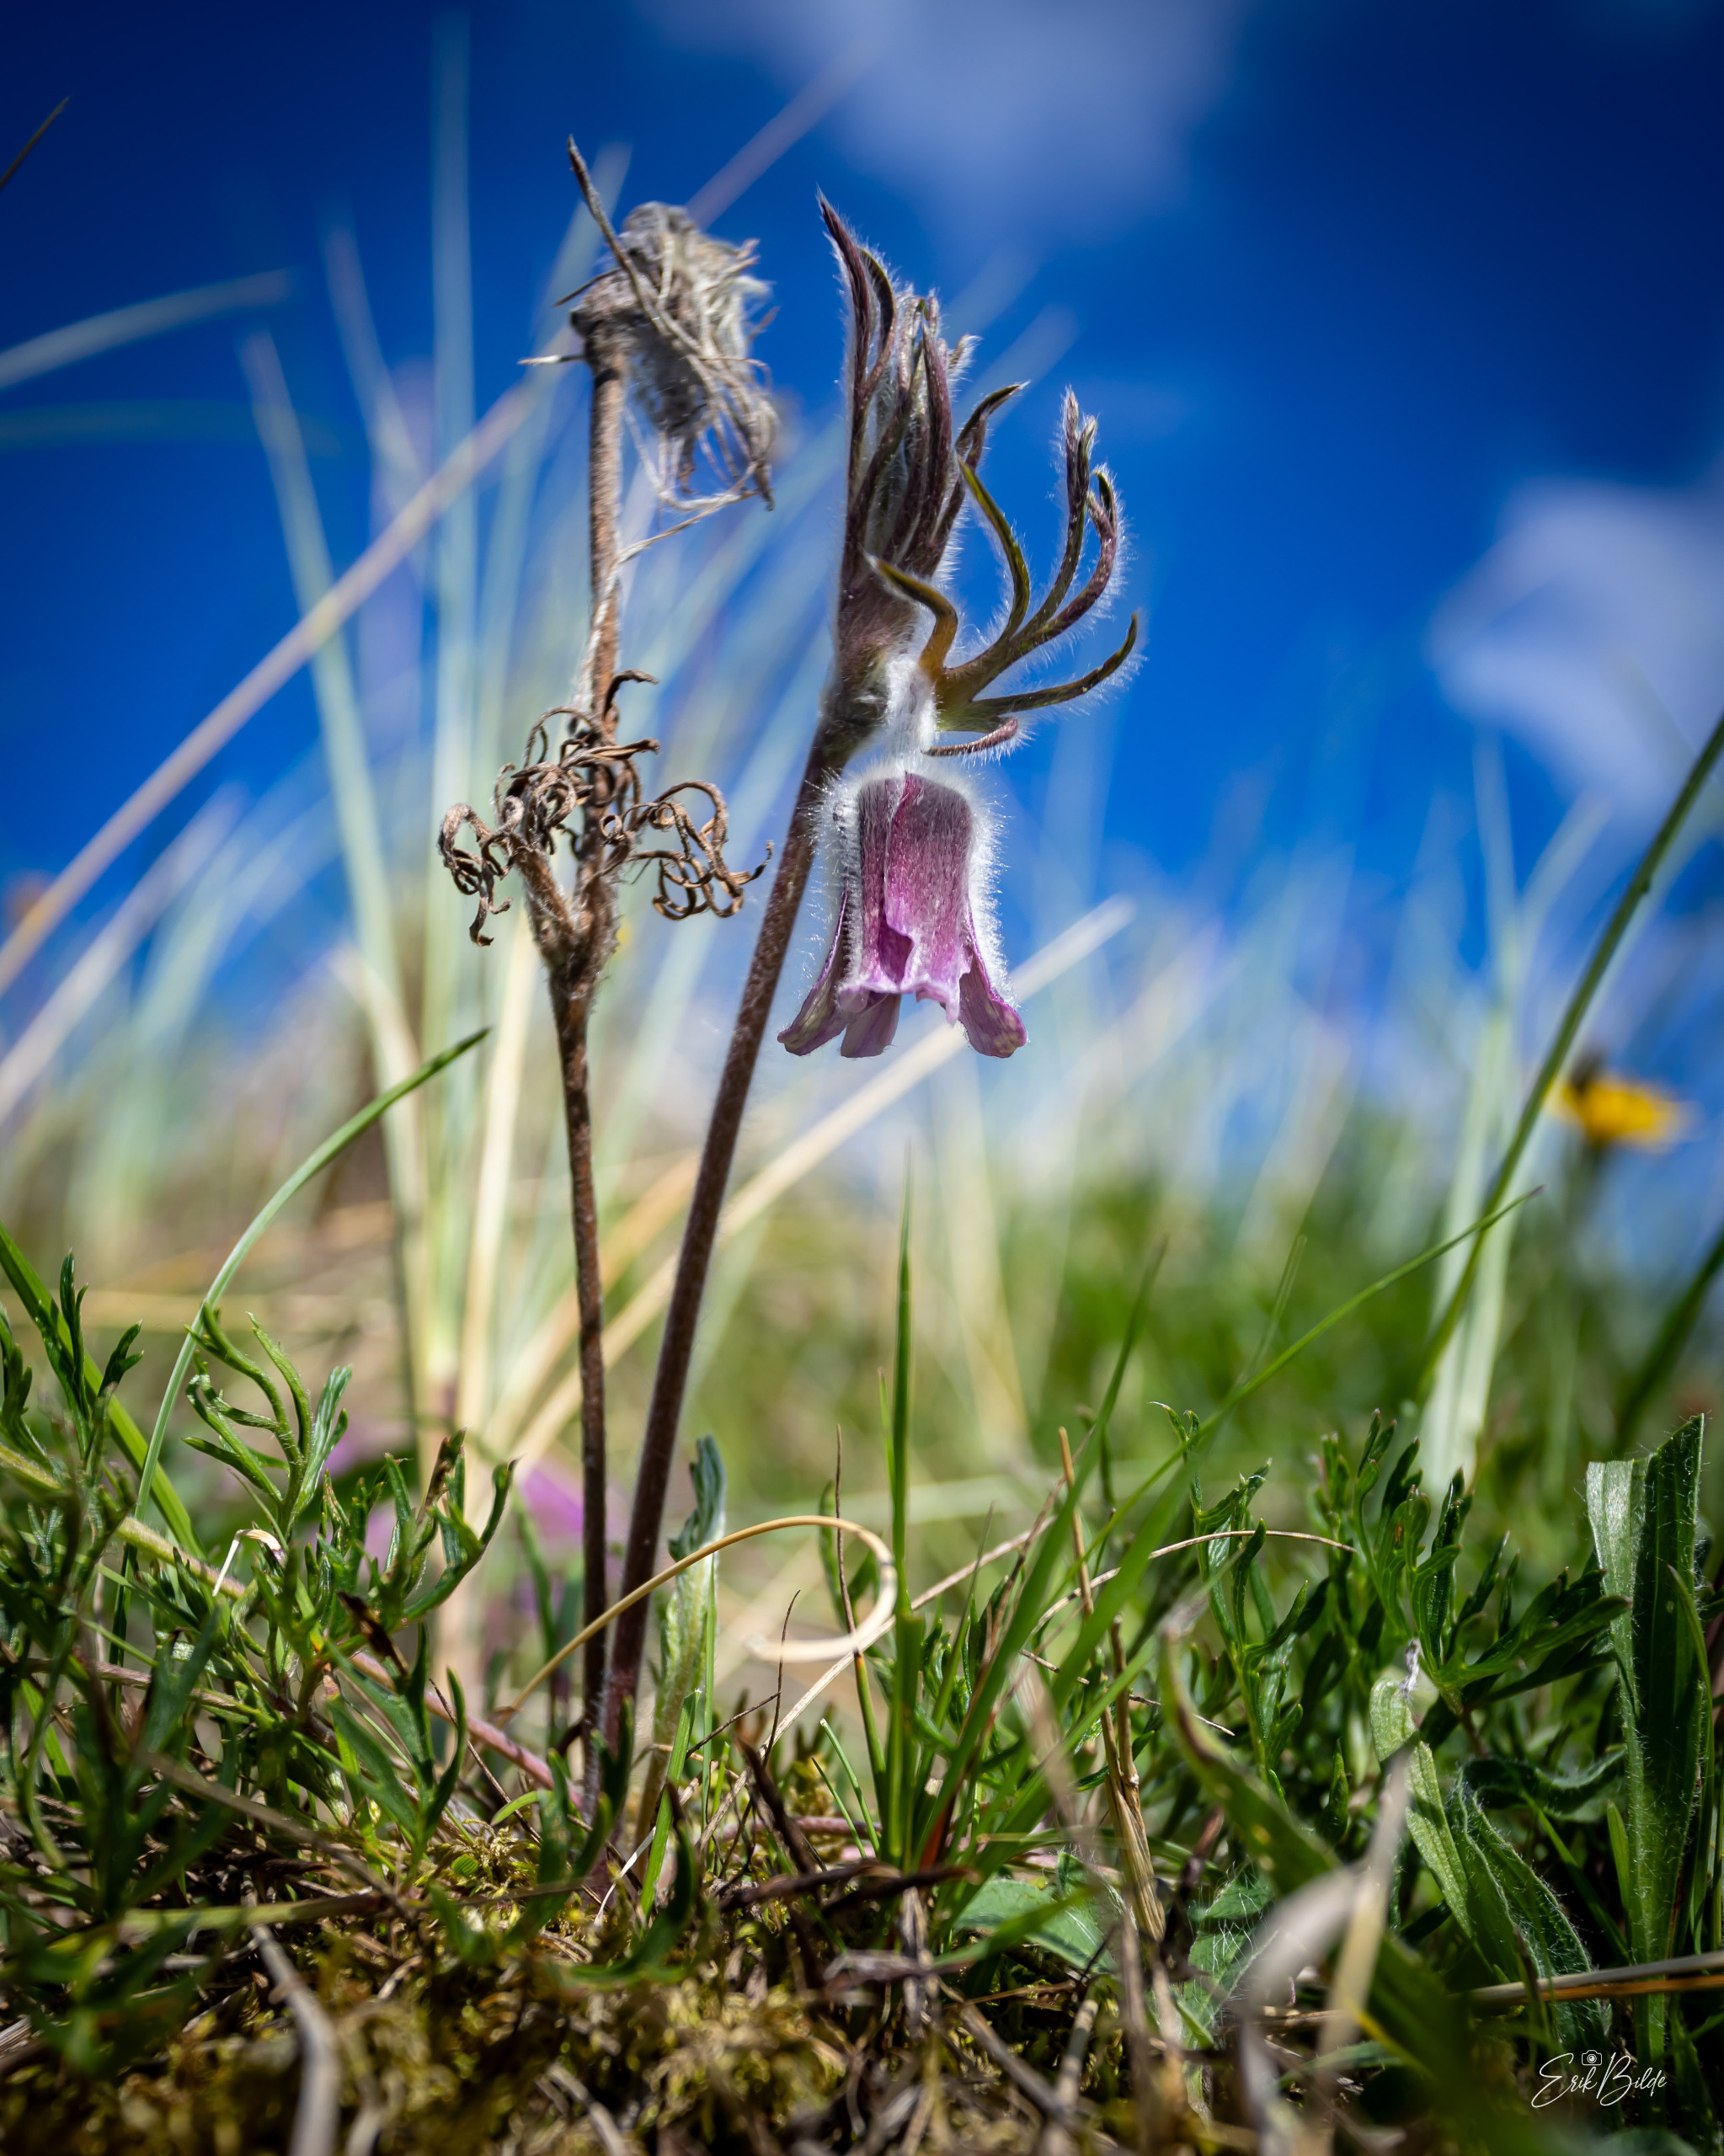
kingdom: Plantae
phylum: Tracheophyta
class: Magnoliopsida
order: Ranunculales
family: Ranunculaceae
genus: Pulsatilla
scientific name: Pulsatilla pratensis
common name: Nikkende kobjælde
